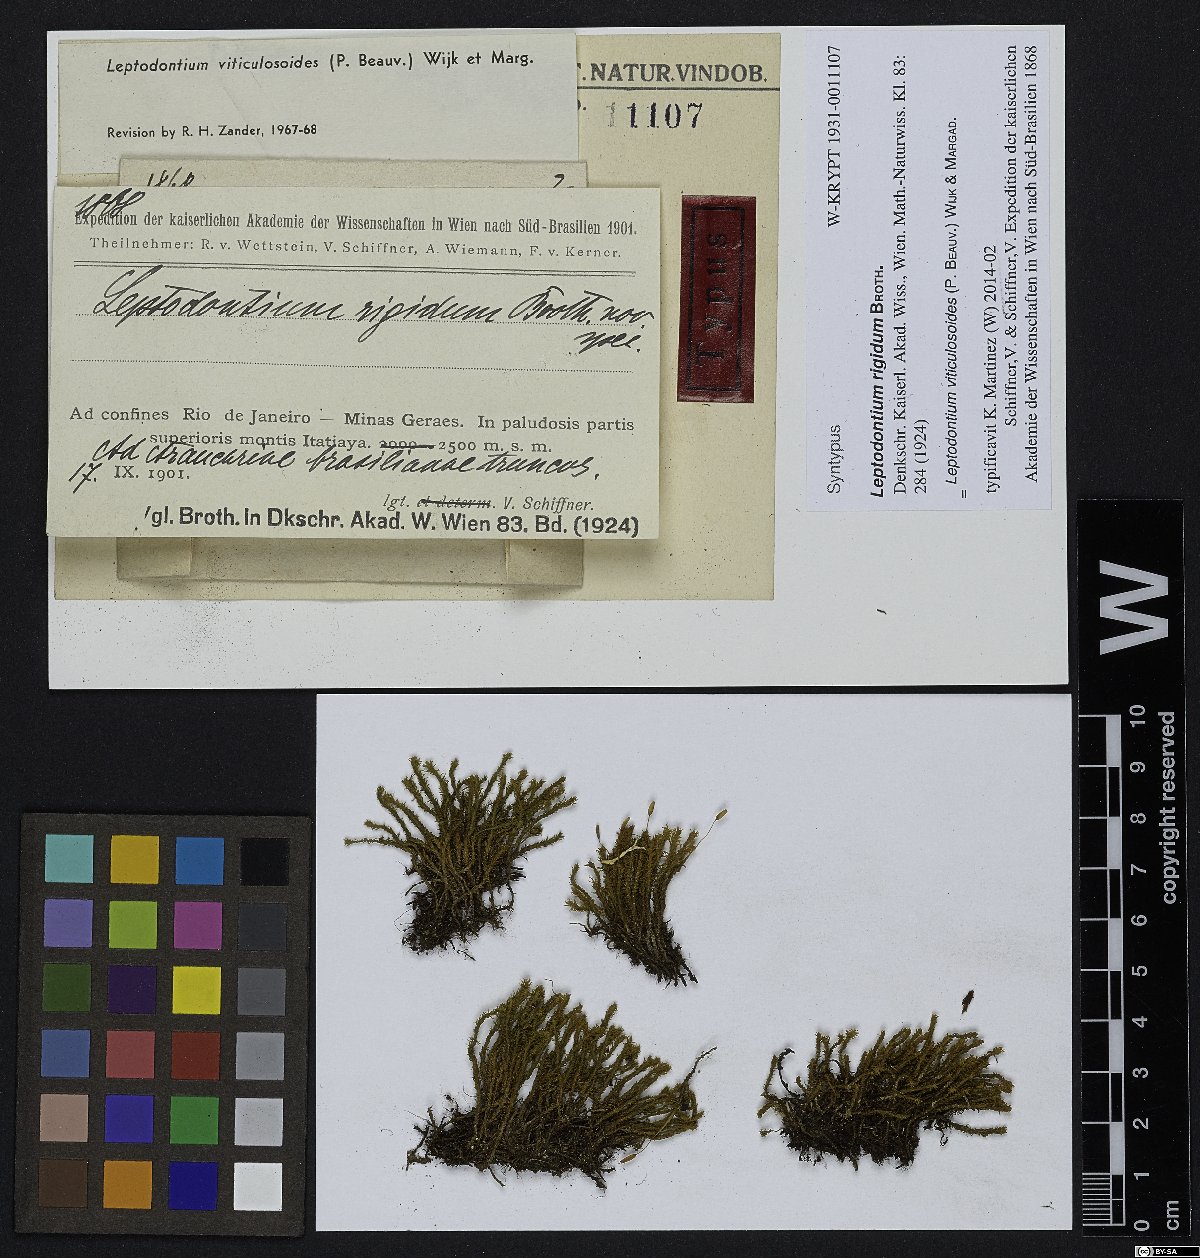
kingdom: Plantae
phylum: Bryophyta
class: Bryopsida
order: Pottiales
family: Pottiaceae
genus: Leptodontium
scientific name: Leptodontium viticulosoides
